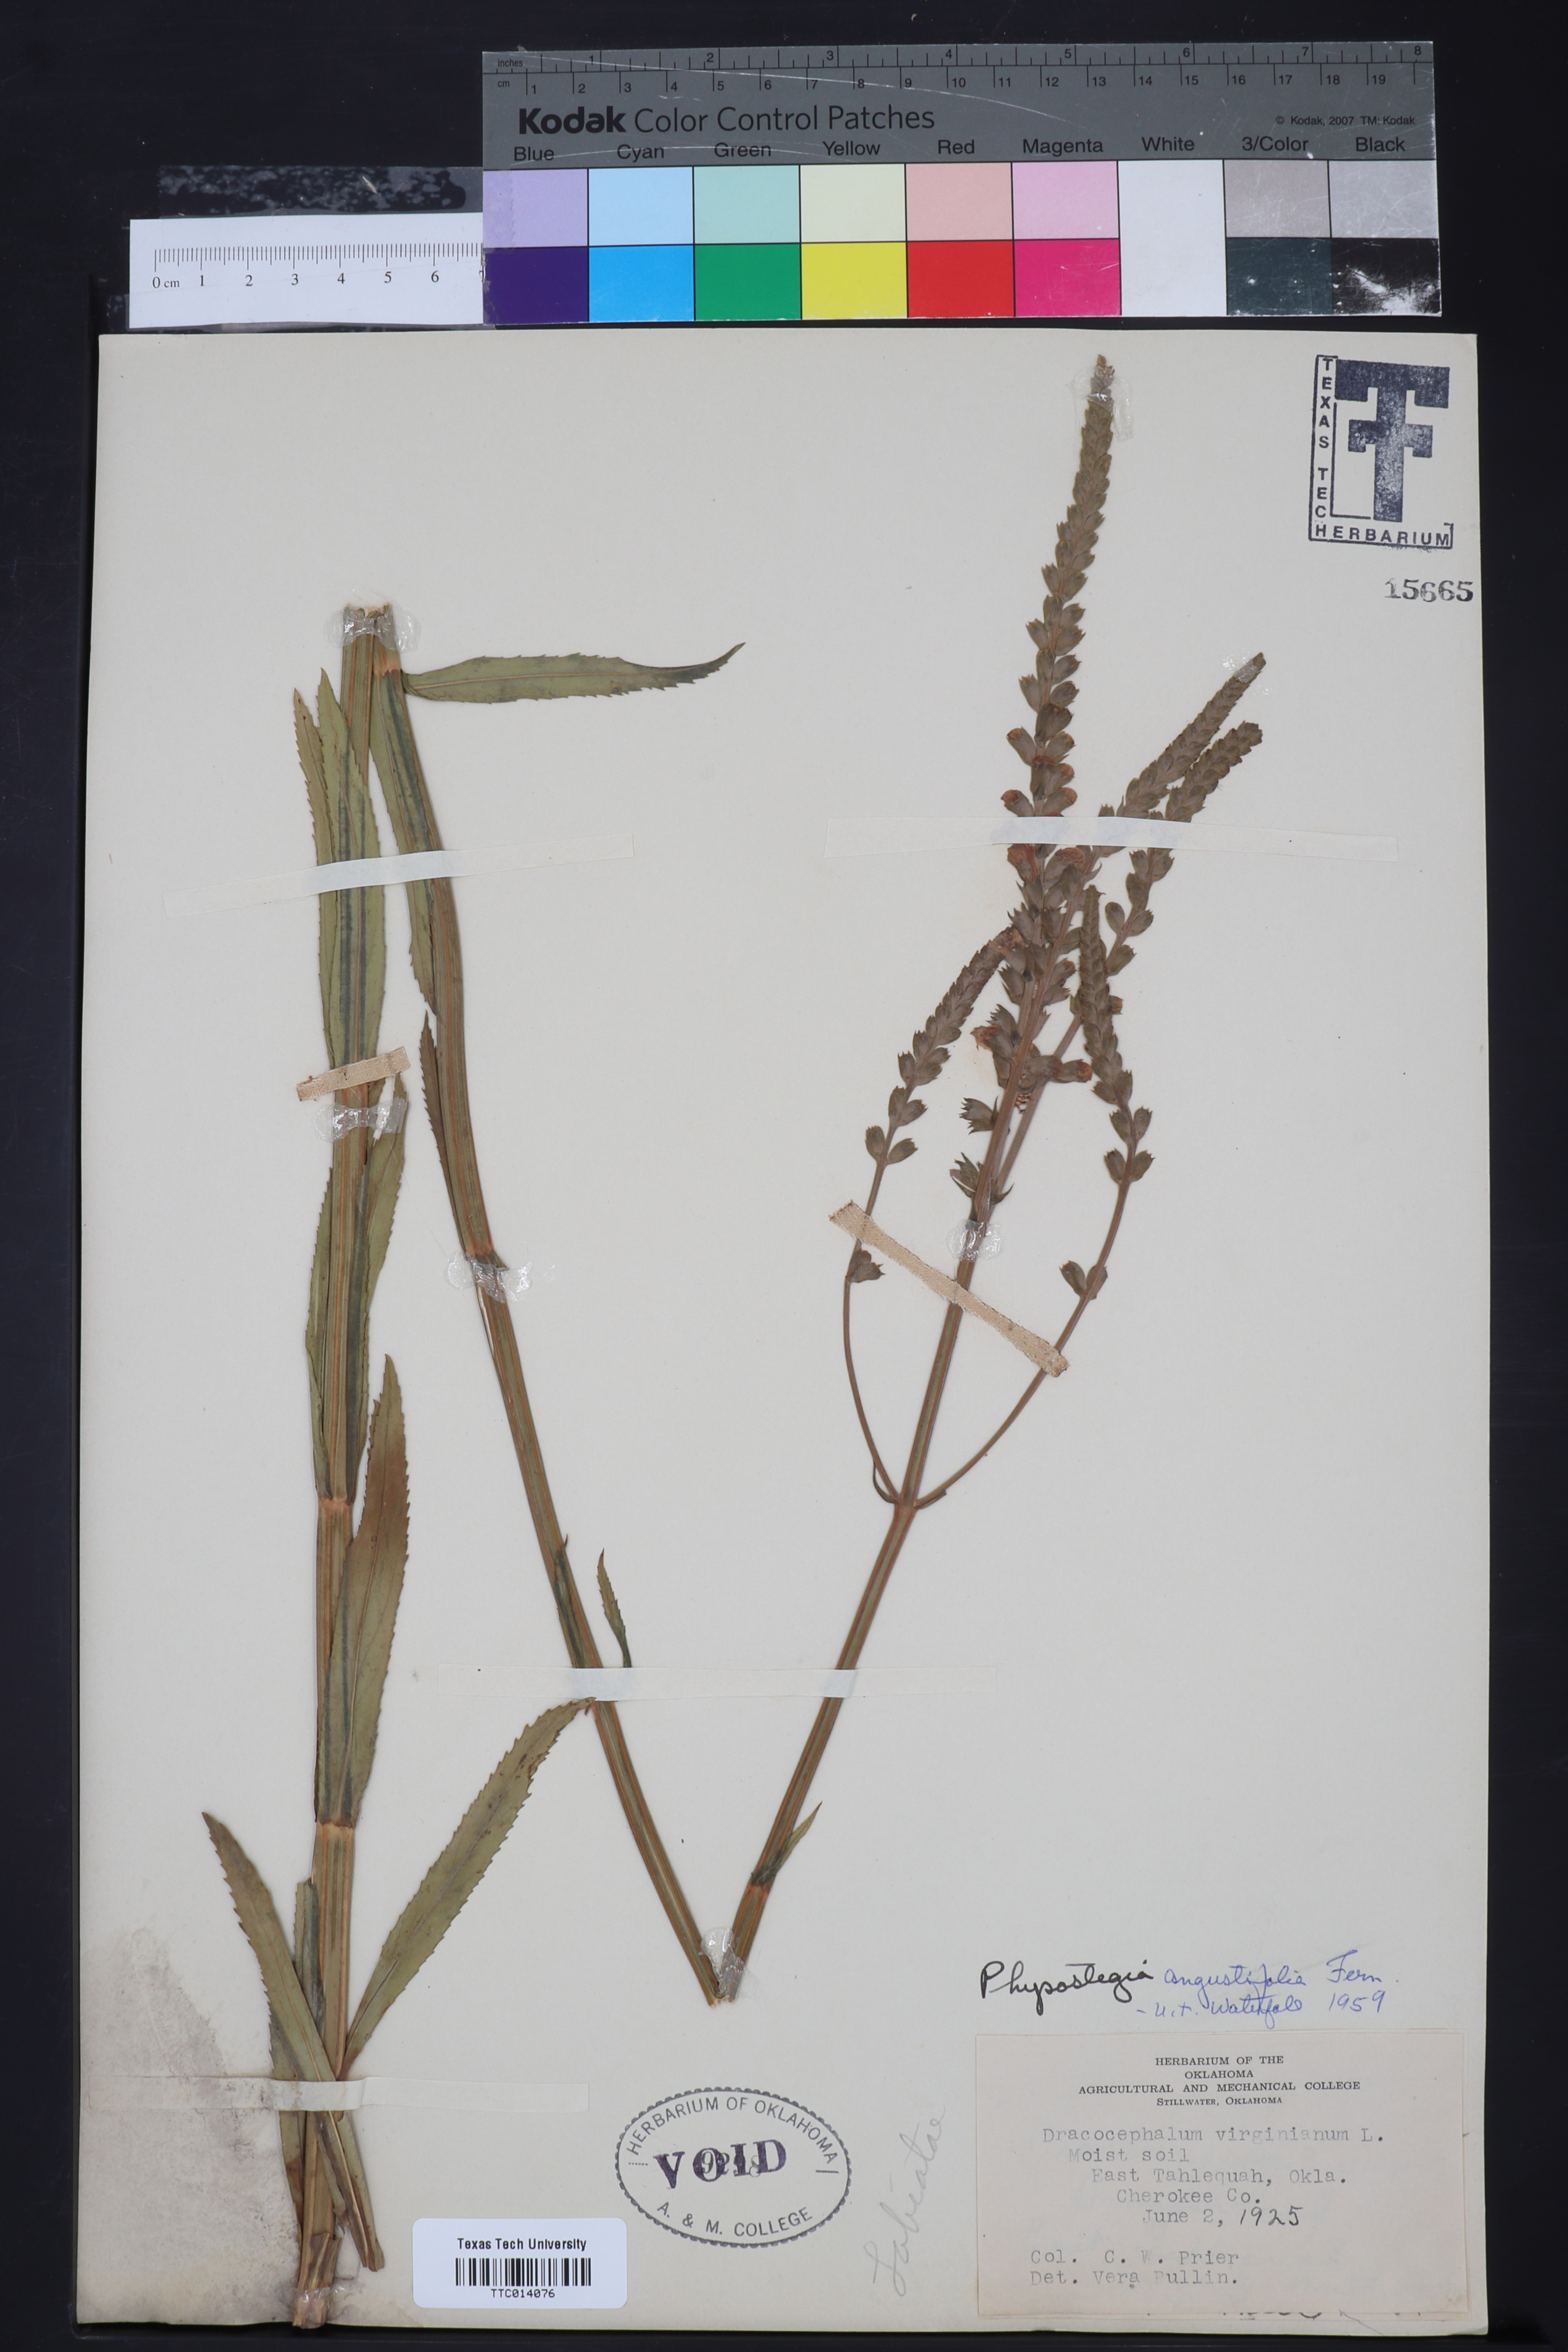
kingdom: Plantae
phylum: Tracheophyta
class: Magnoliopsida
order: Lamiales
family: Lamiaceae
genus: Physostegia
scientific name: Physostegia angustifolia
